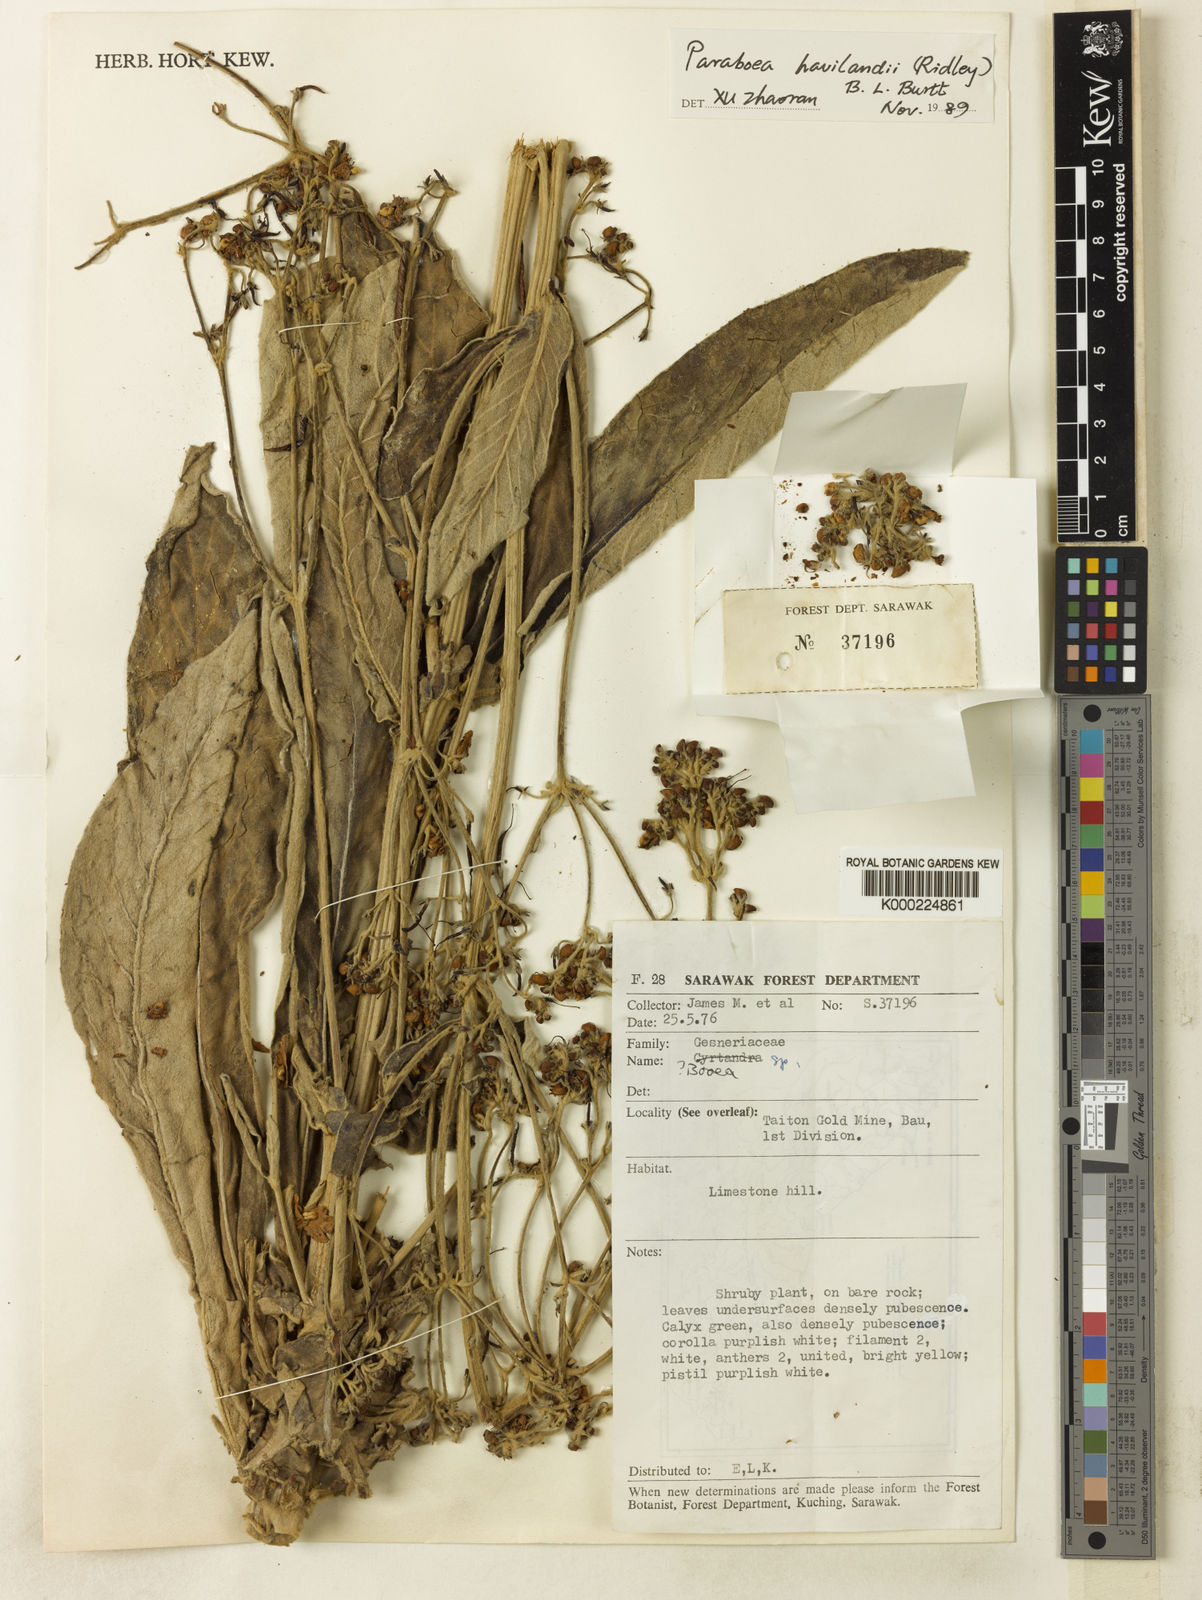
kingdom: Plantae
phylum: Tracheophyta
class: Magnoliopsida
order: Lamiales
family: Gesneriaceae
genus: Paraboea
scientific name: Paraboea havilandii
